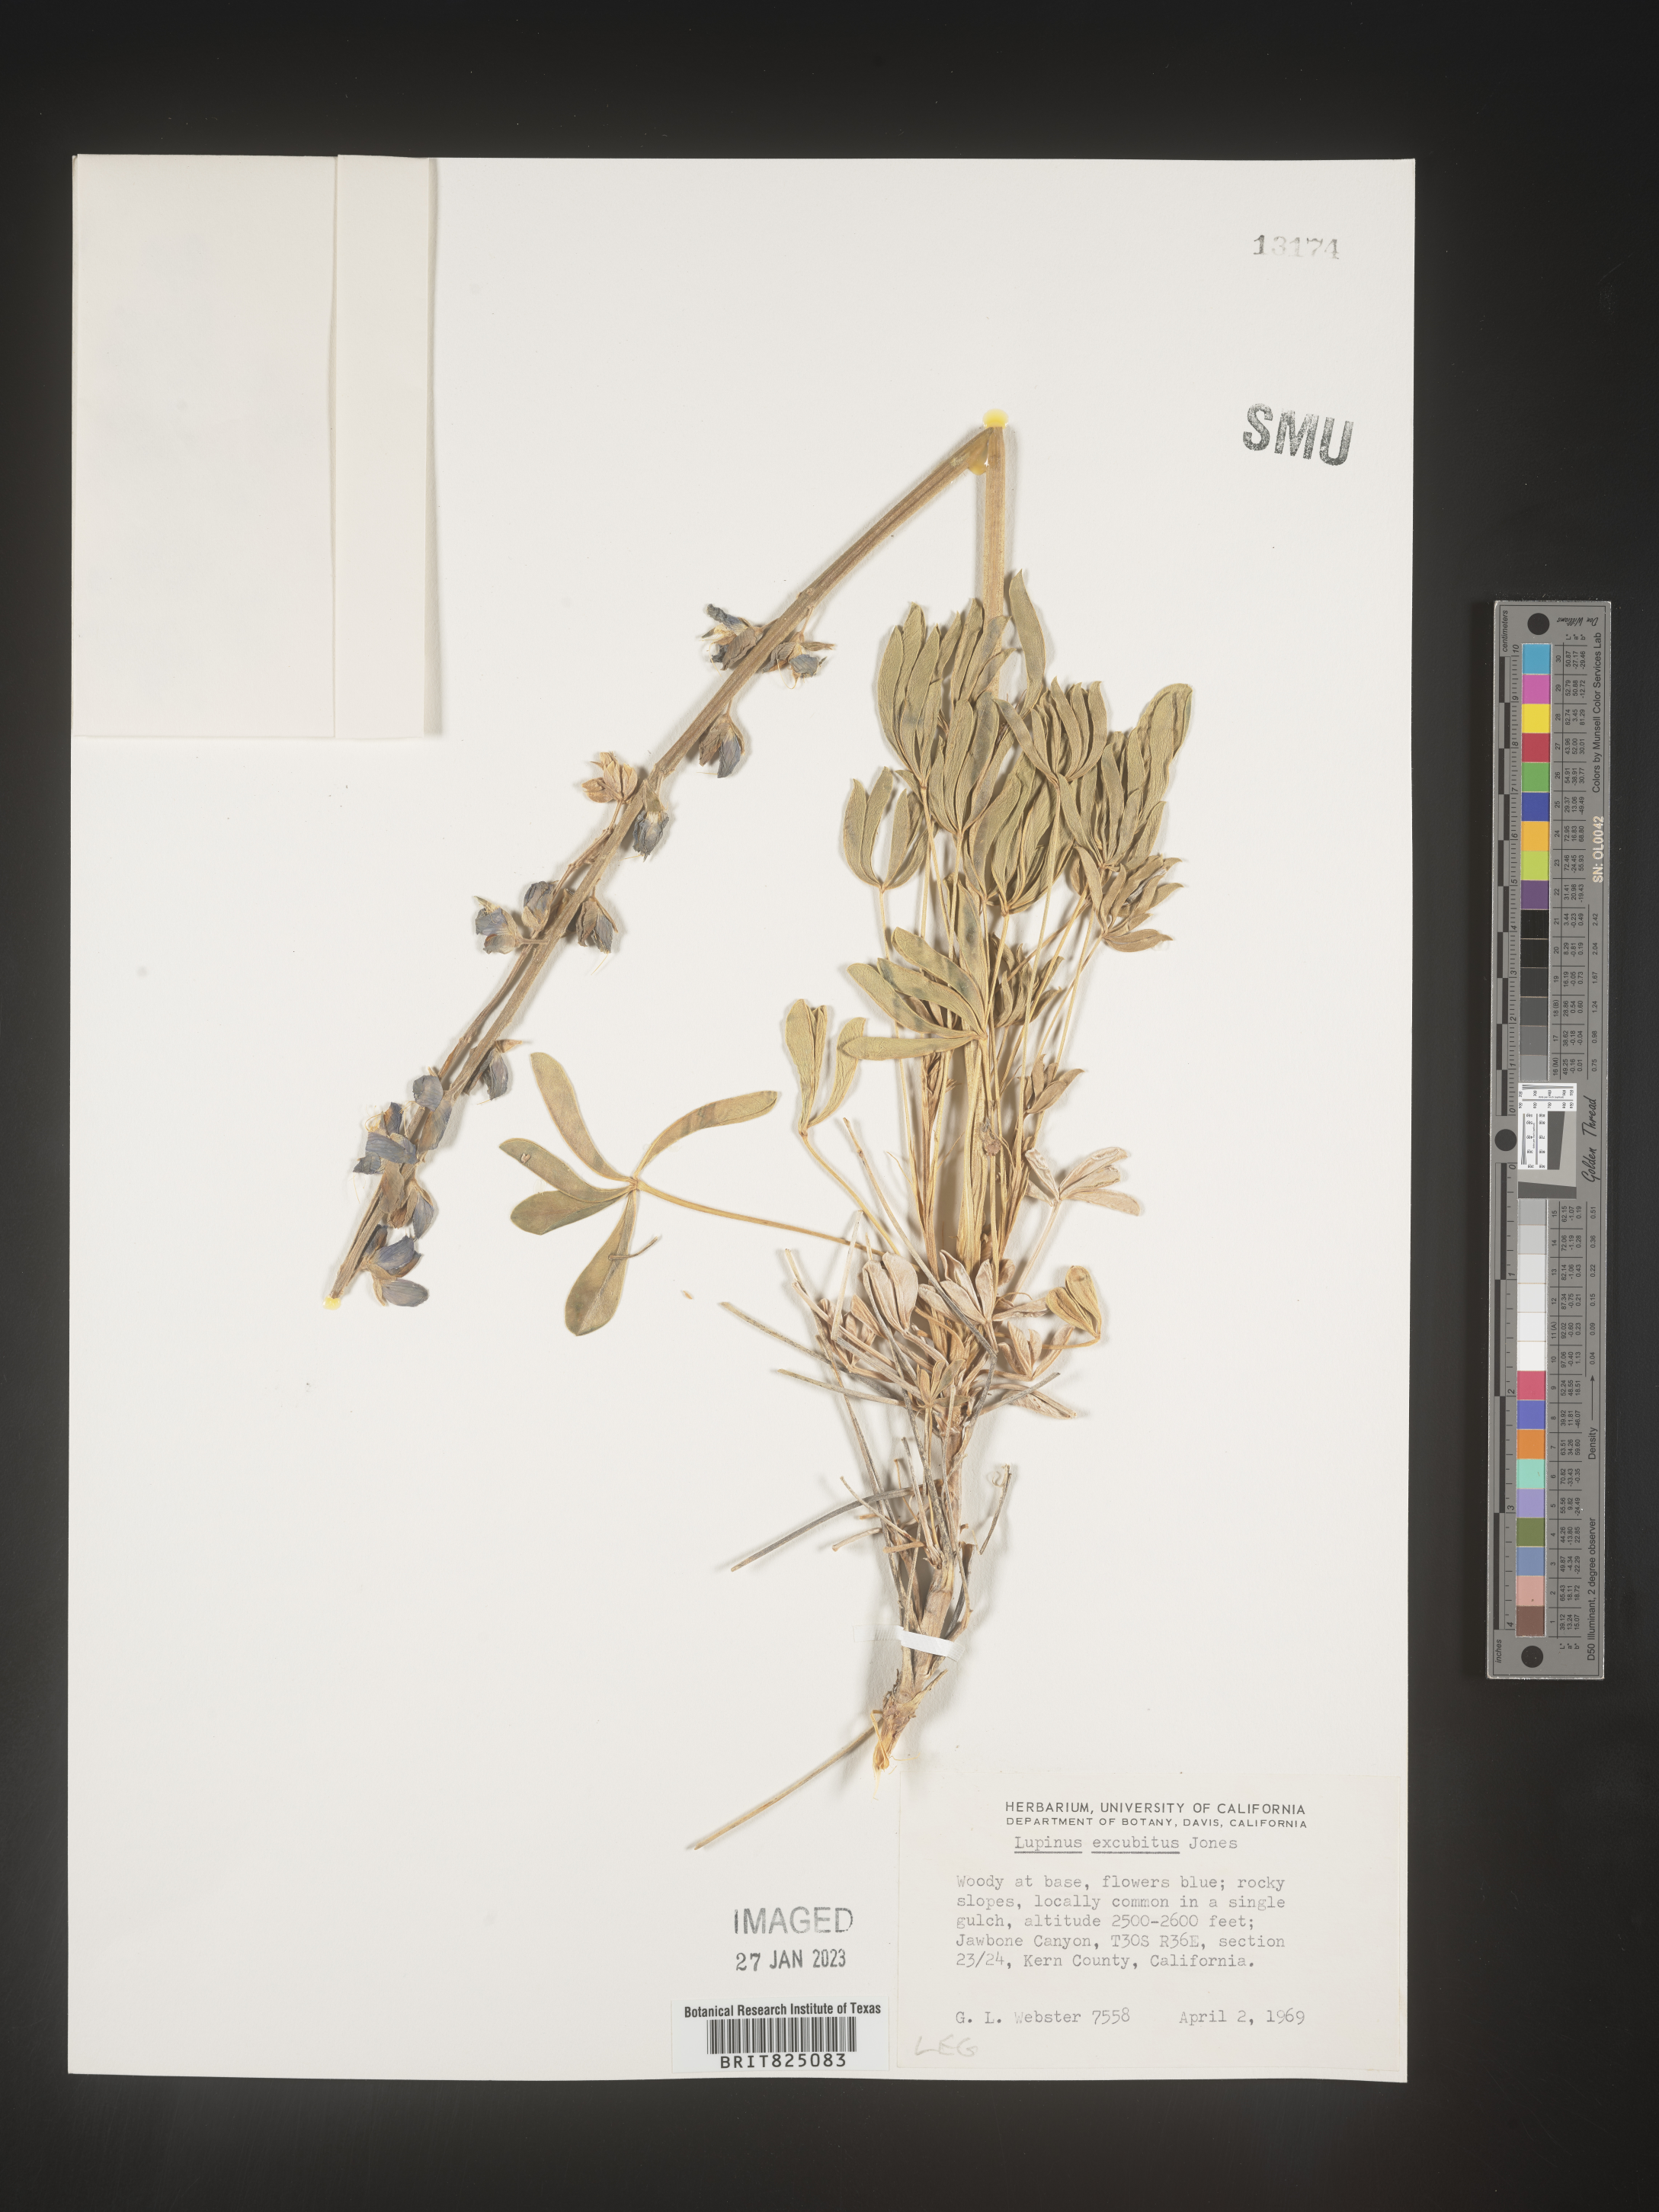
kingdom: Plantae
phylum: Tracheophyta
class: Magnoliopsida
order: Fabales
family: Fabaceae
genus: Lupinus
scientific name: Lupinus
